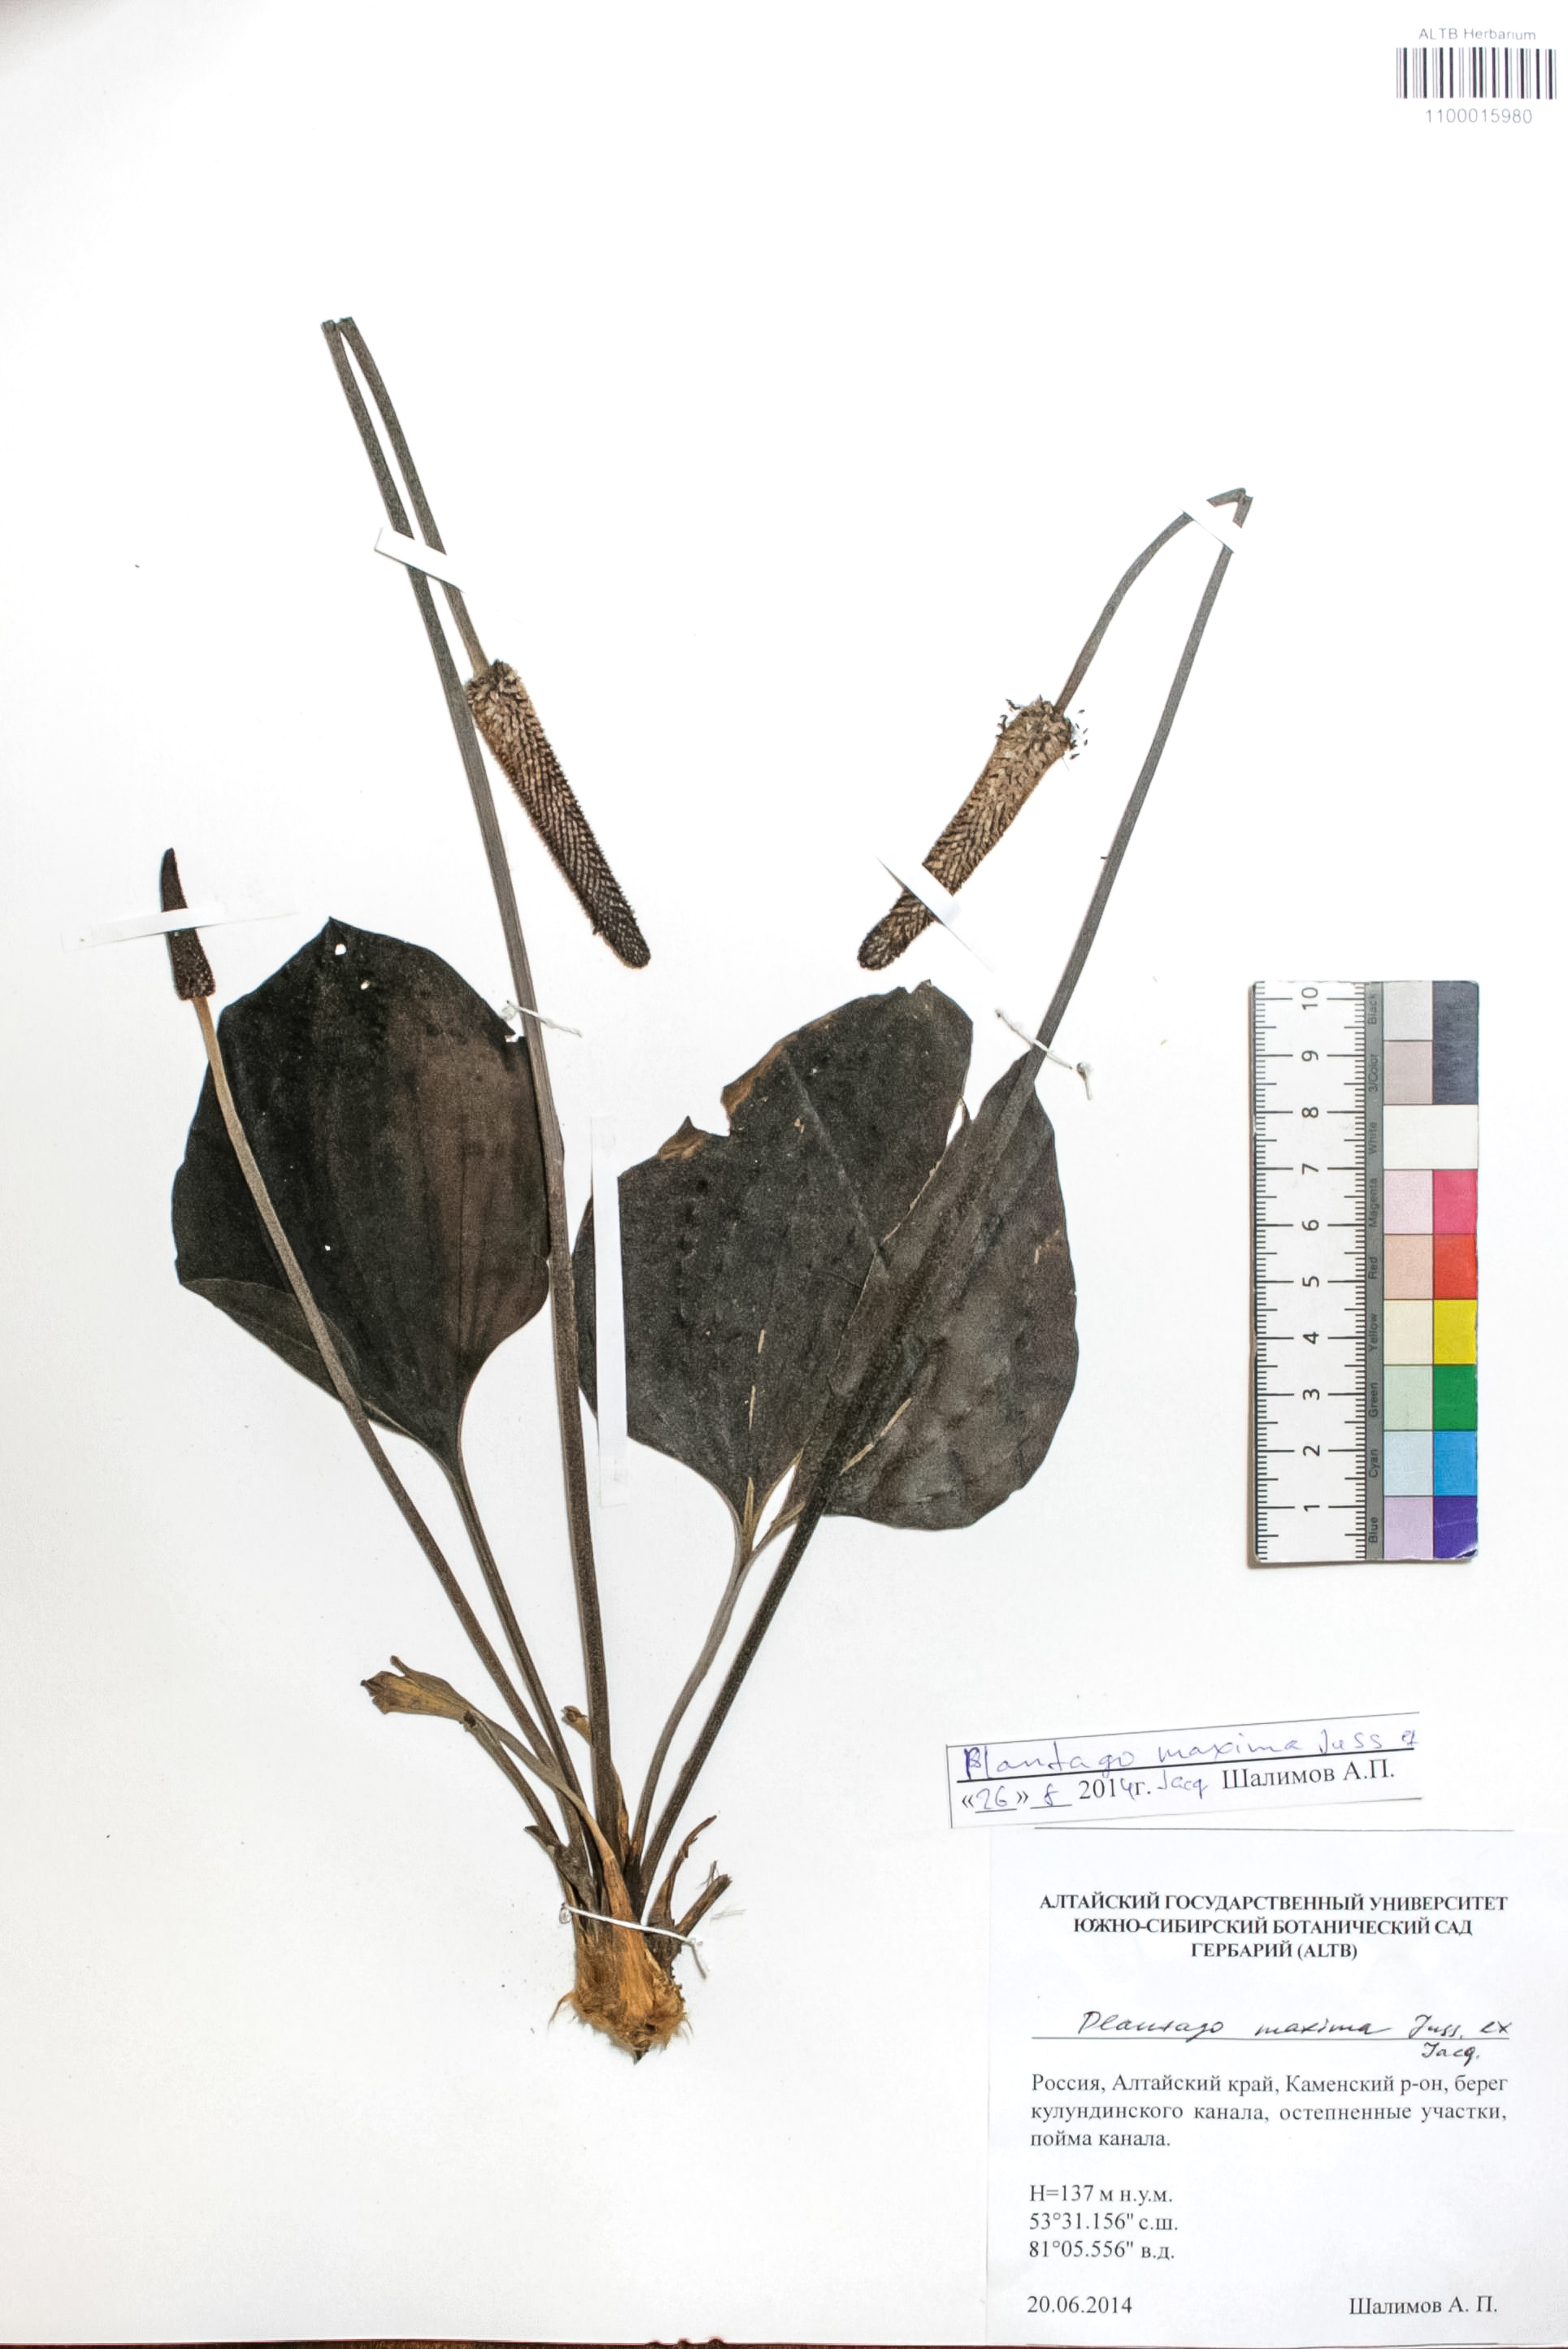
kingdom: Plantae
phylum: Tracheophyta
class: Magnoliopsida
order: Lamiales
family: Plantaginaceae
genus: Plantago
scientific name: Plantago maxima
